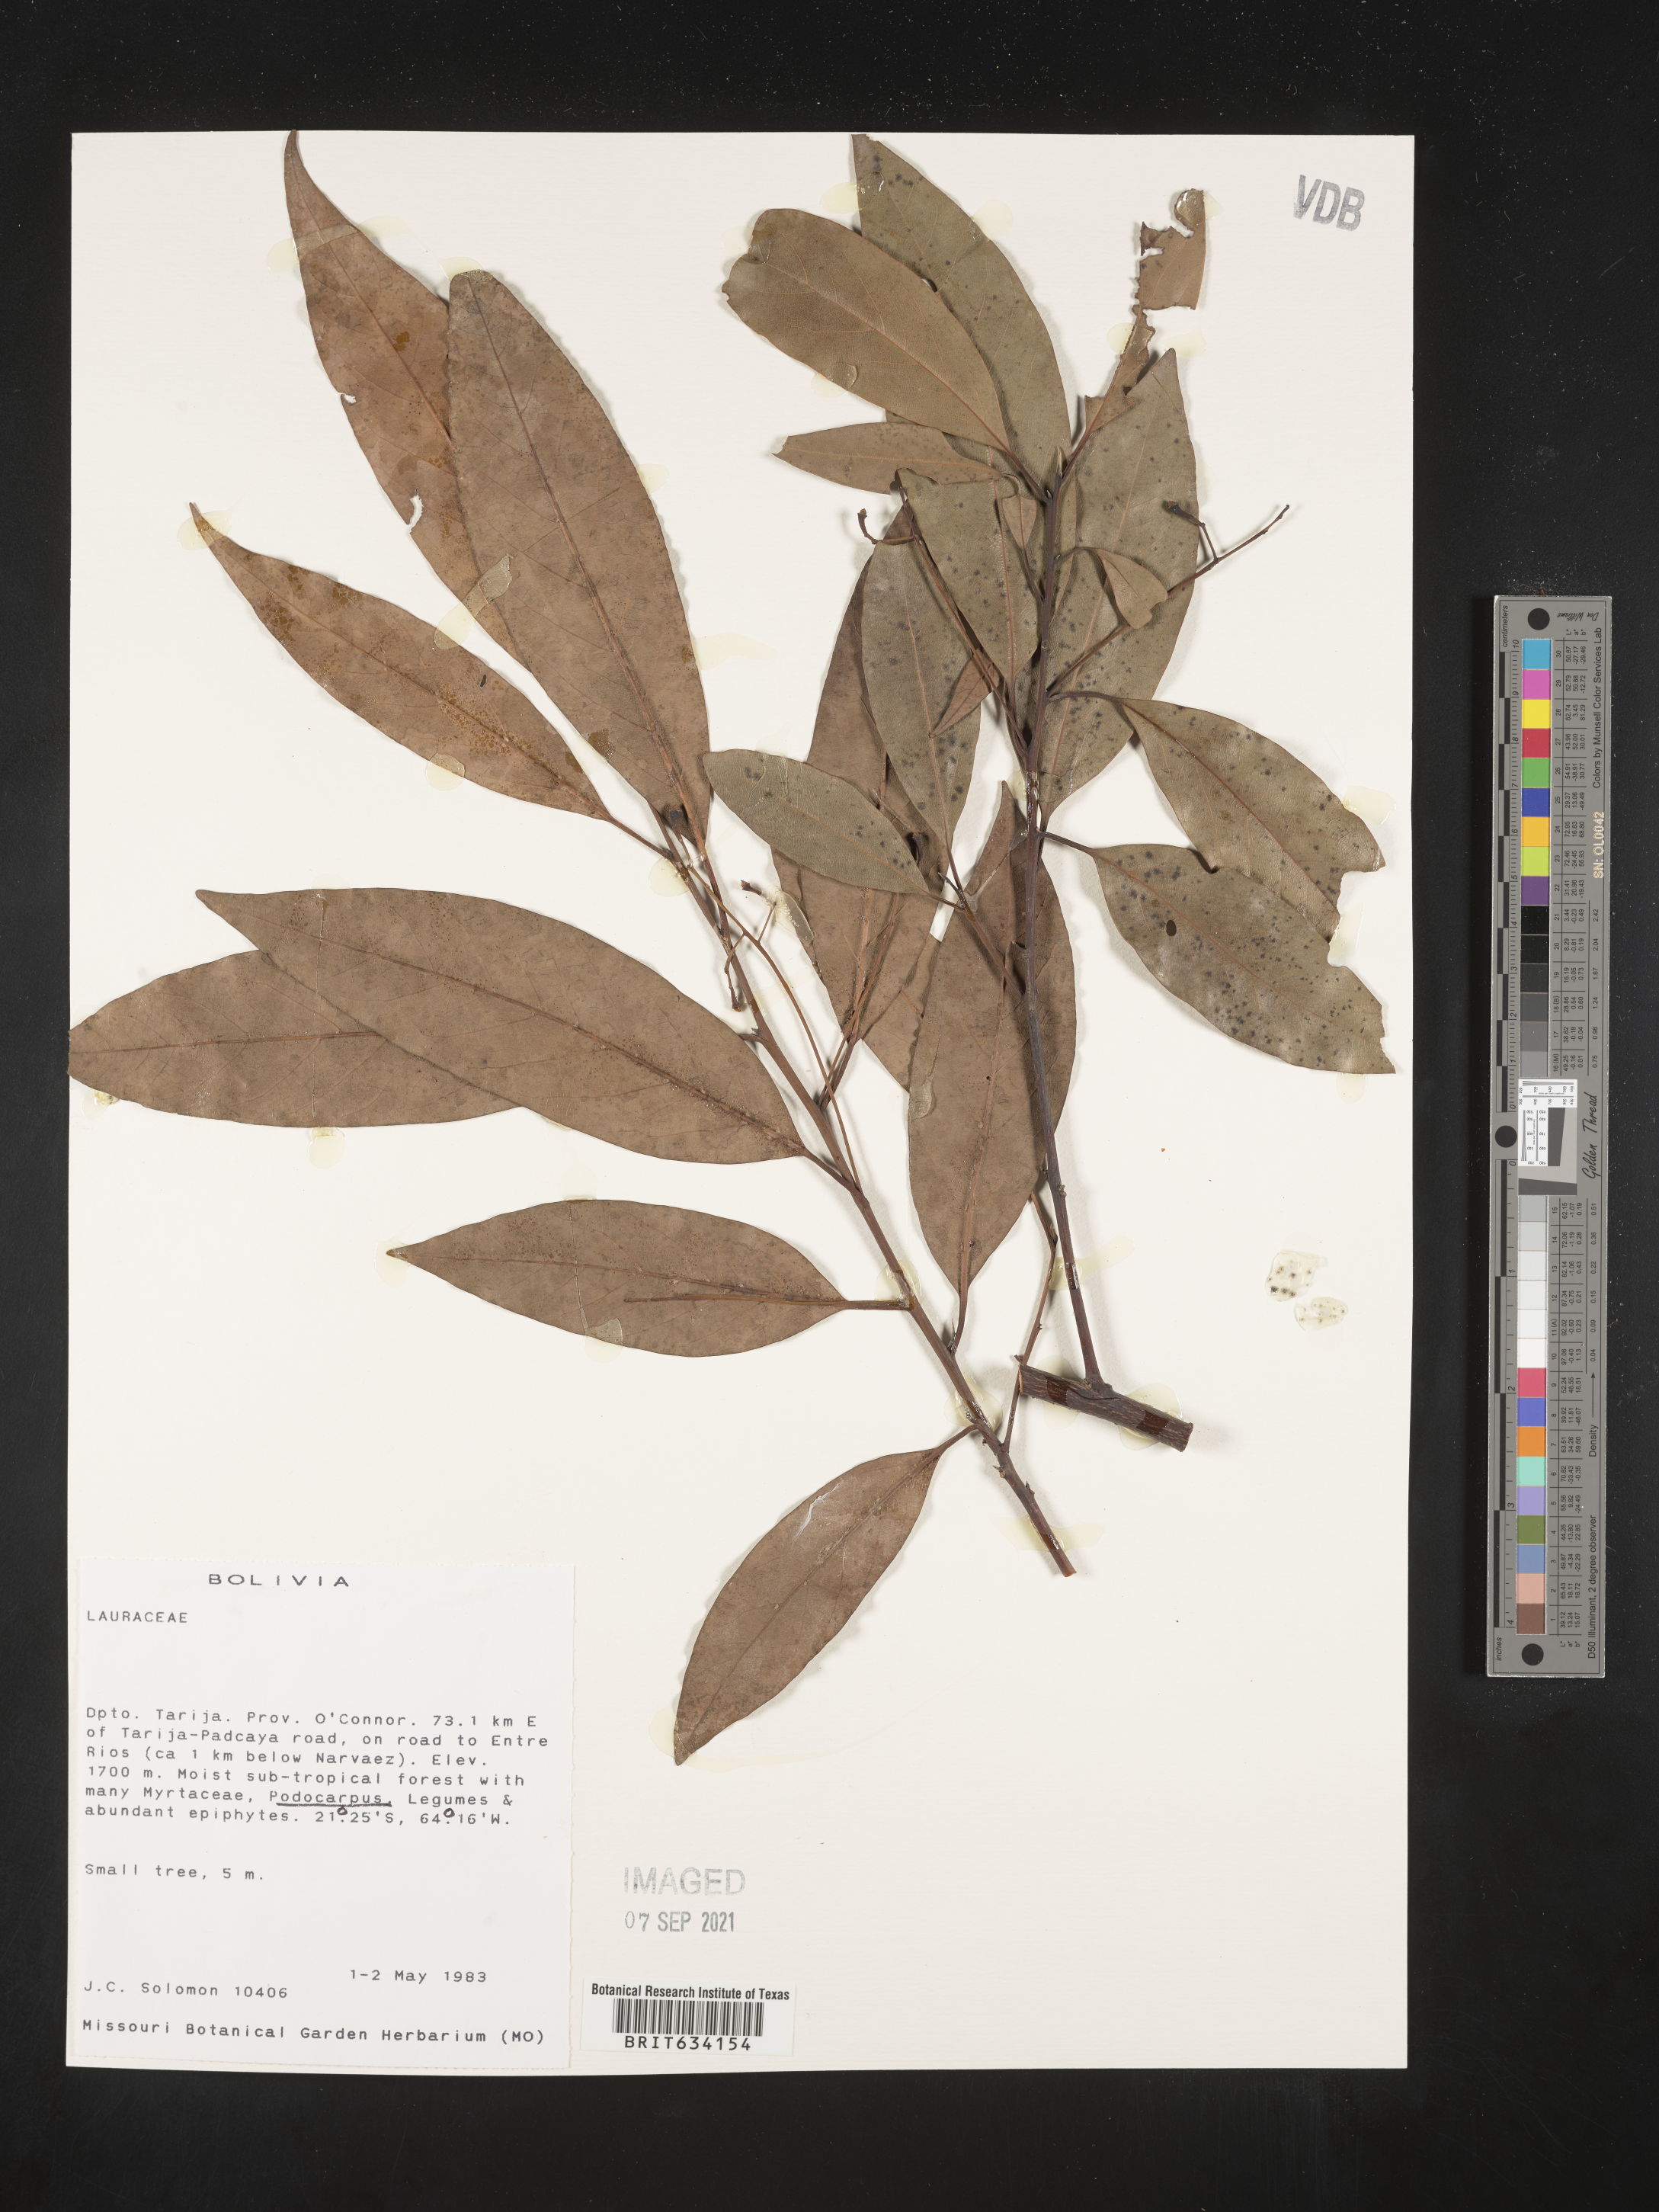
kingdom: Plantae
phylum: Tracheophyta
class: Magnoliopsida
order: Laurales
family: Lauraceae
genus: Nectandra
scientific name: Nectandra
